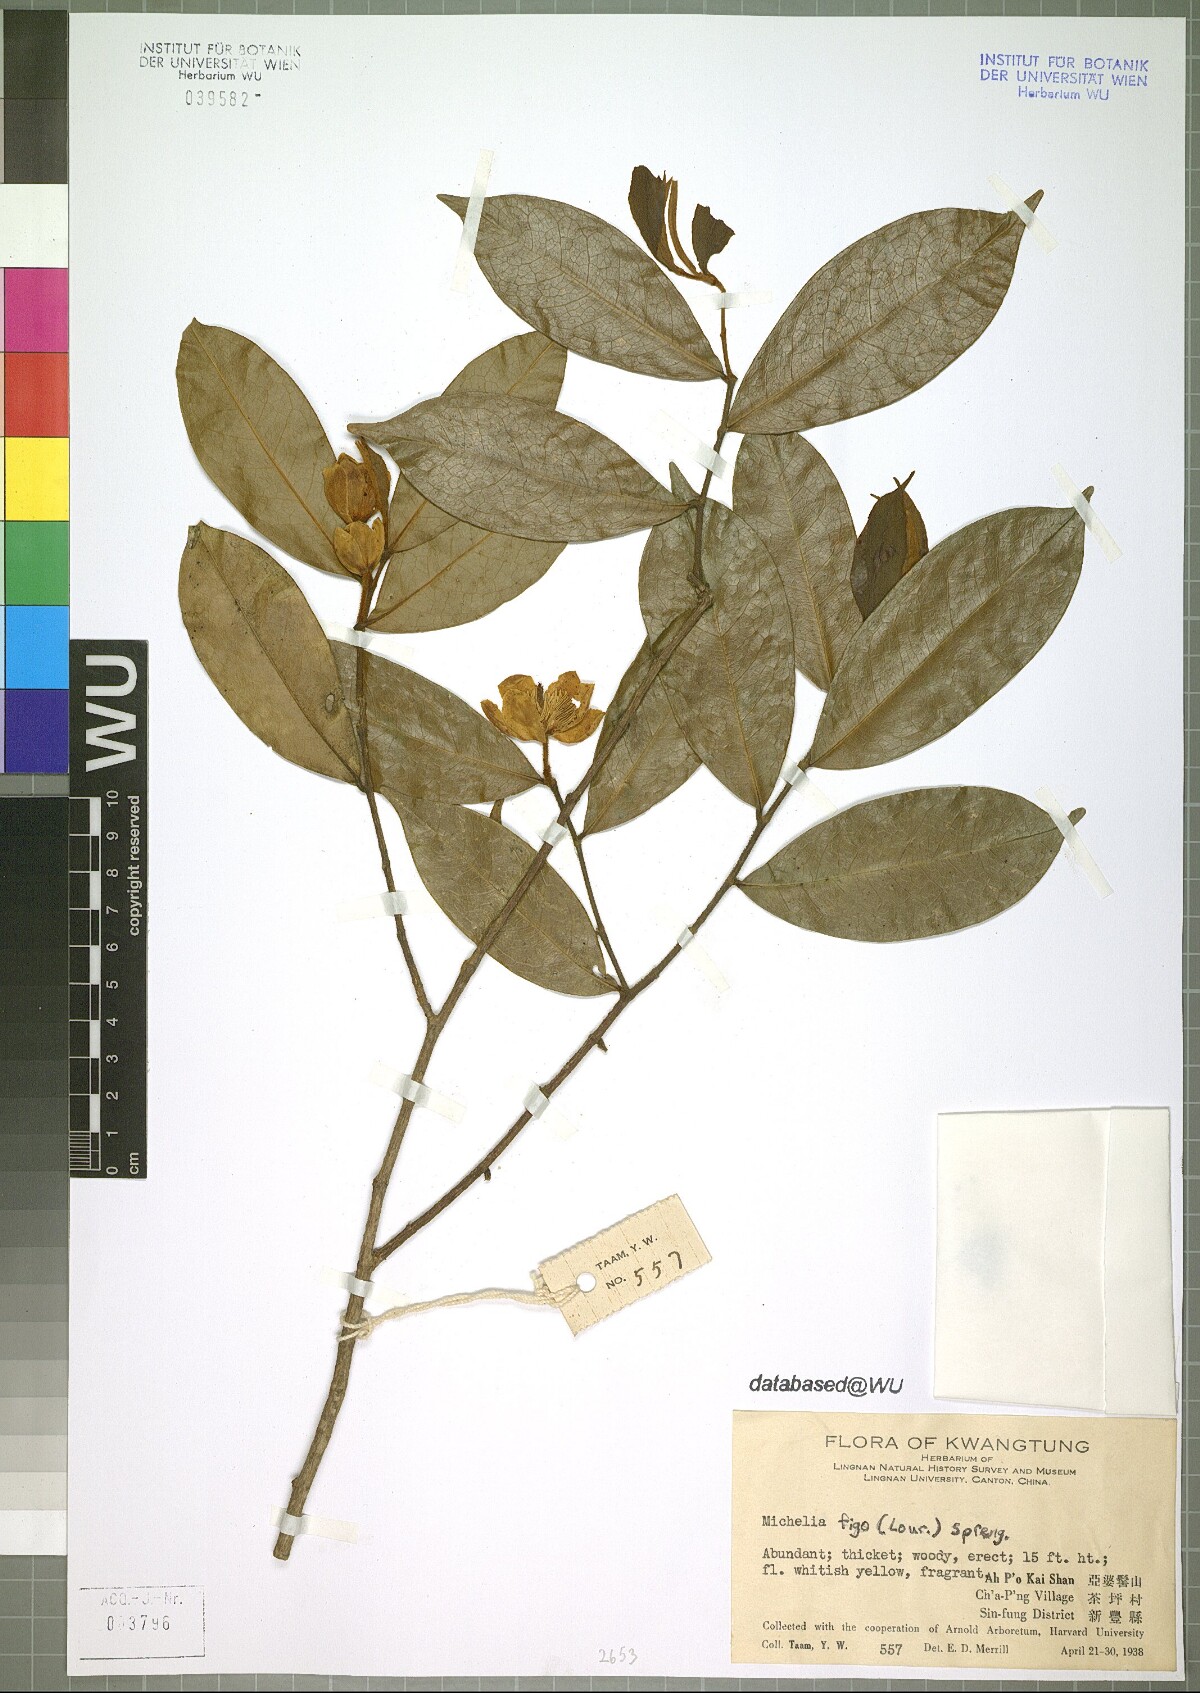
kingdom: Plantae
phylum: Tracheophyta
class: Magnoliopsida
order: Magnoliales
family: Magnoliaceae
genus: Magnolia
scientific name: Magnolia figo
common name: Banana shrub
